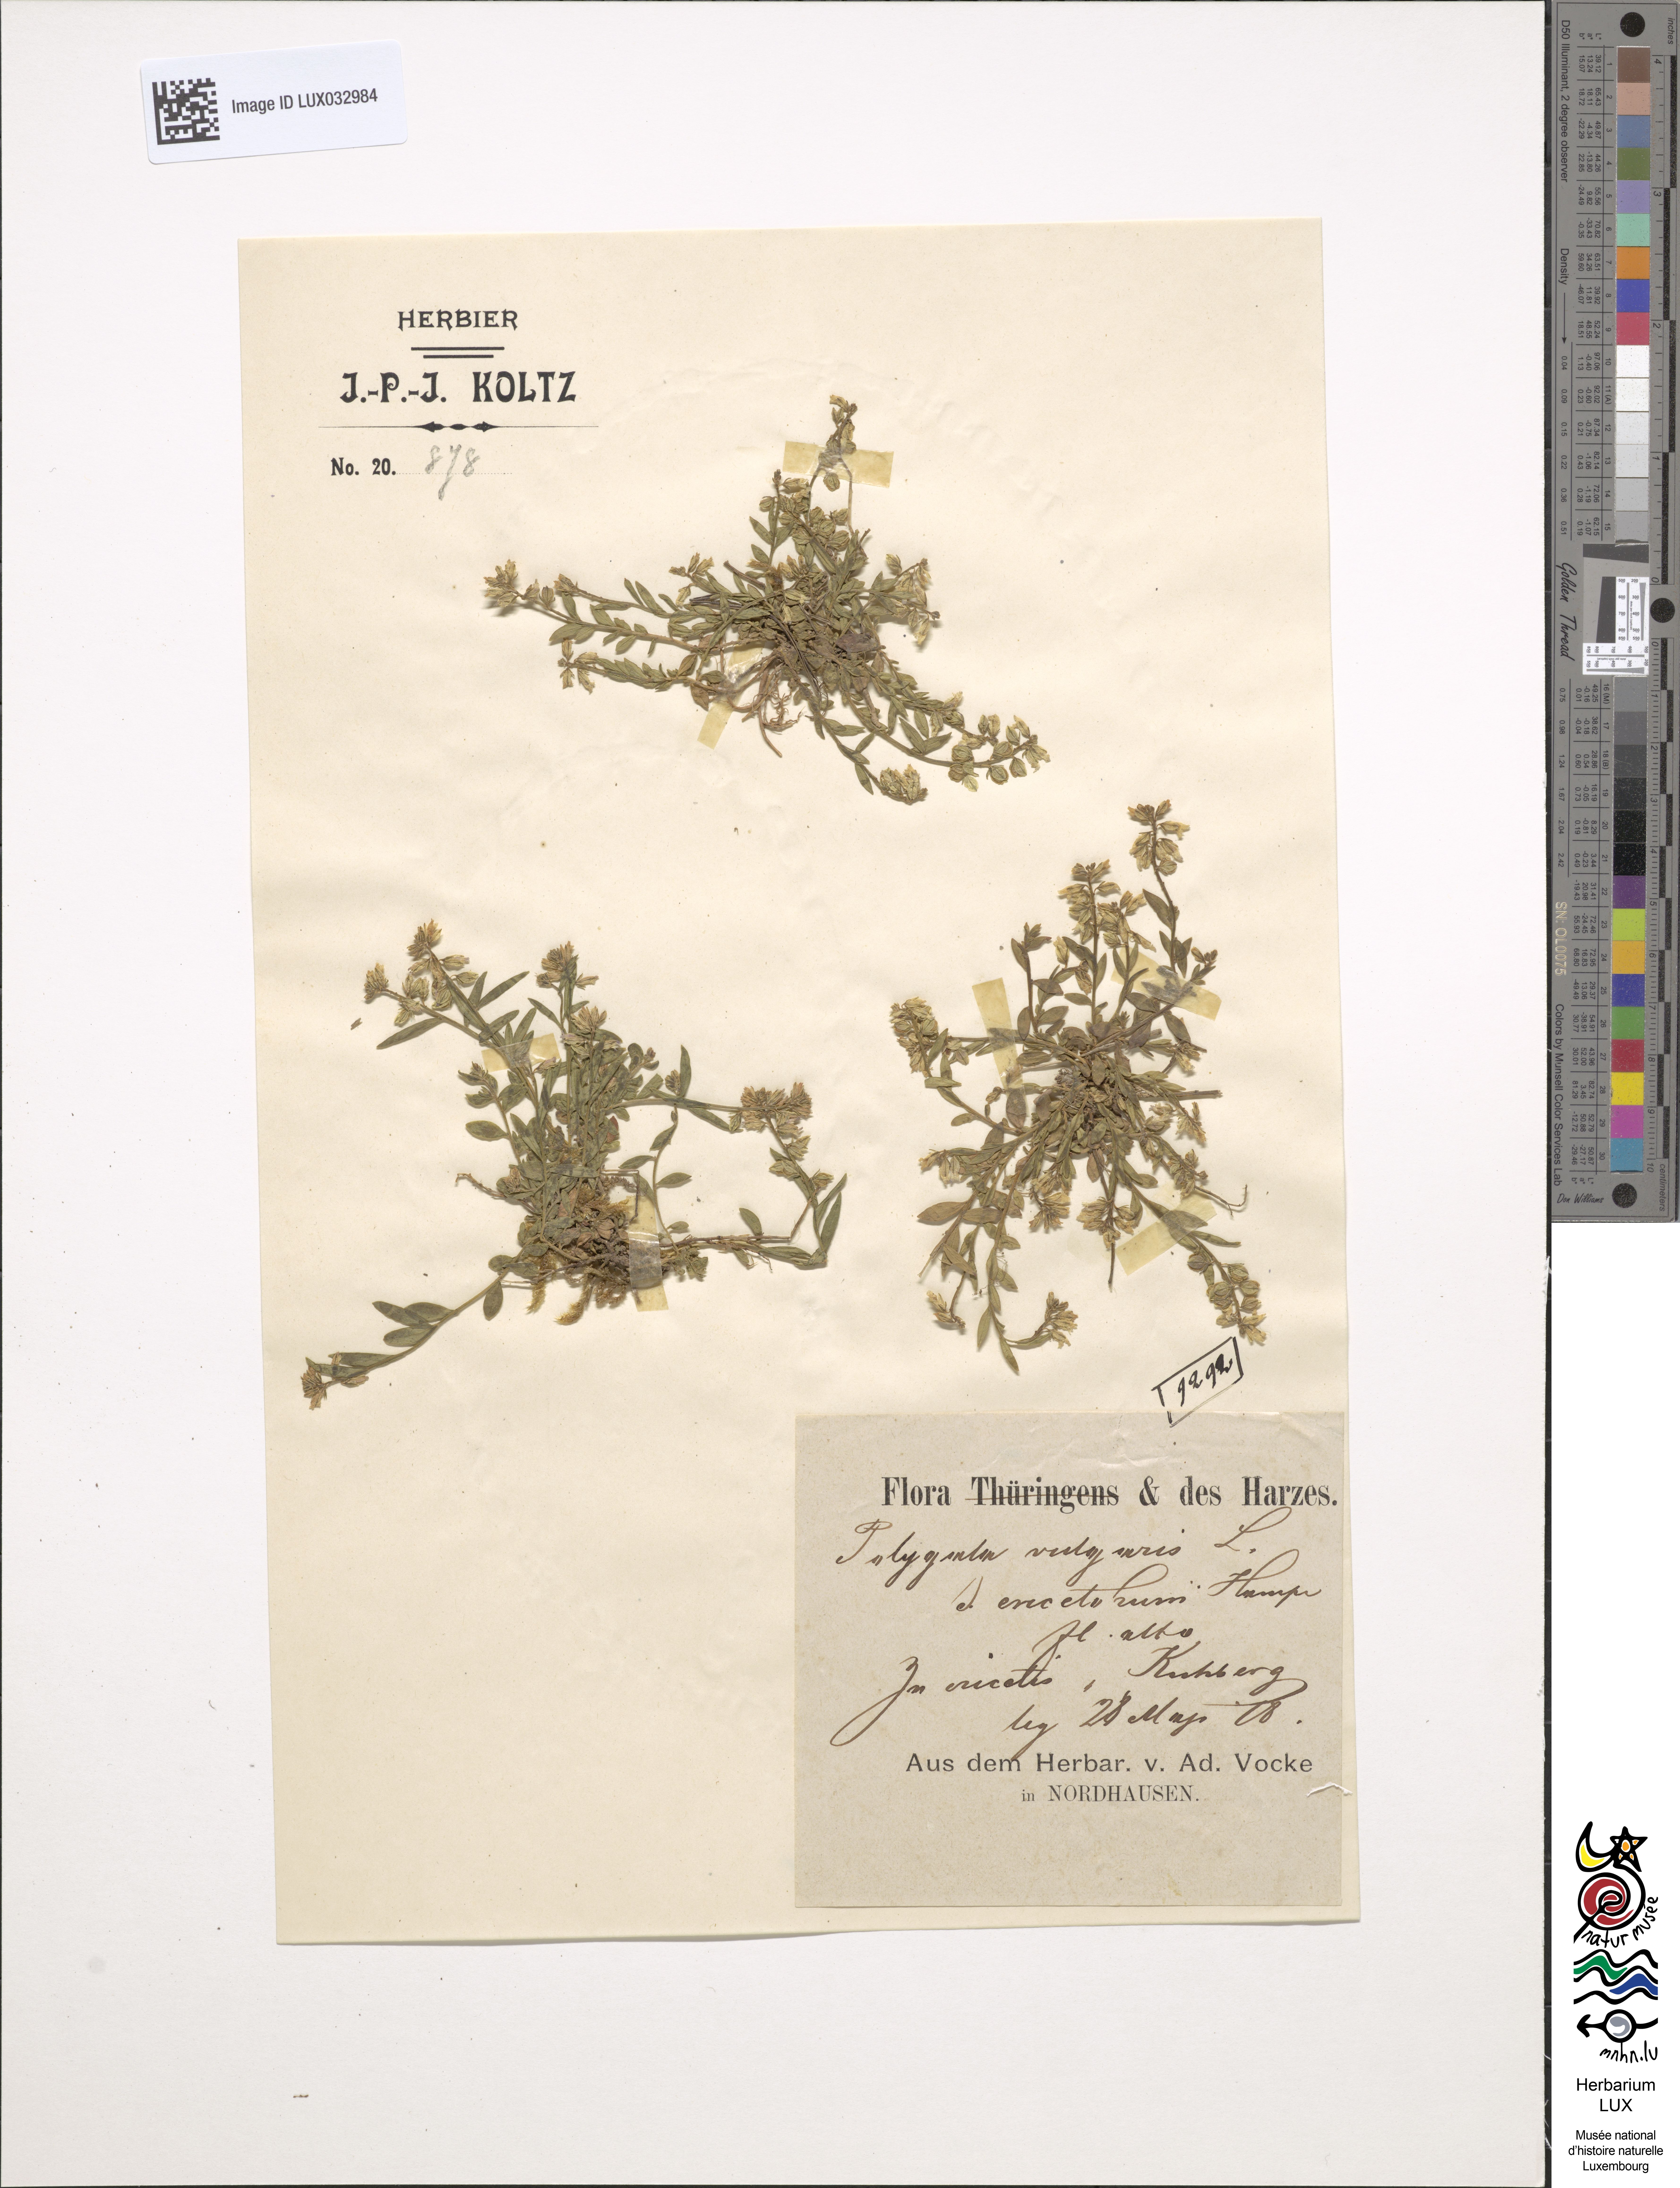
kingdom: Plantae
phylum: Tracheophyta
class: Magnoliopsida
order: Fabales
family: Polygalaceae
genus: Polygala
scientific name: Polygala vulgaris
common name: Common milkwort
